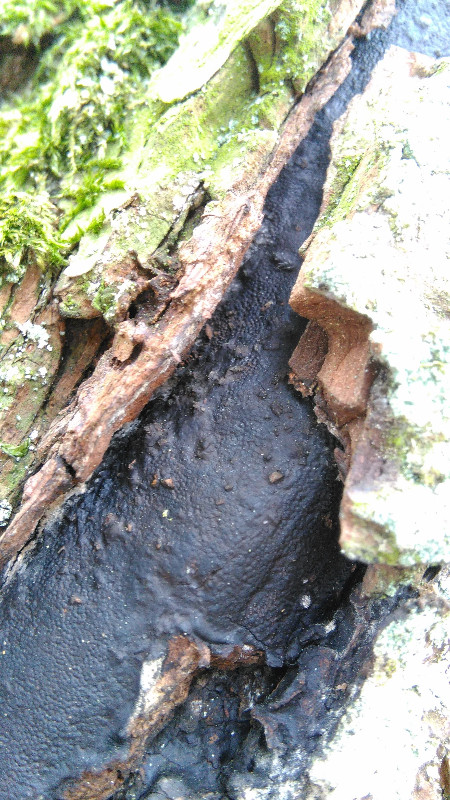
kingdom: Fungi
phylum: Ascomycota
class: Sordariomycetes
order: Boliniales
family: Boliniaceae
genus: Camarops
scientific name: Camarops polysperma
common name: elle-kulsnegl
